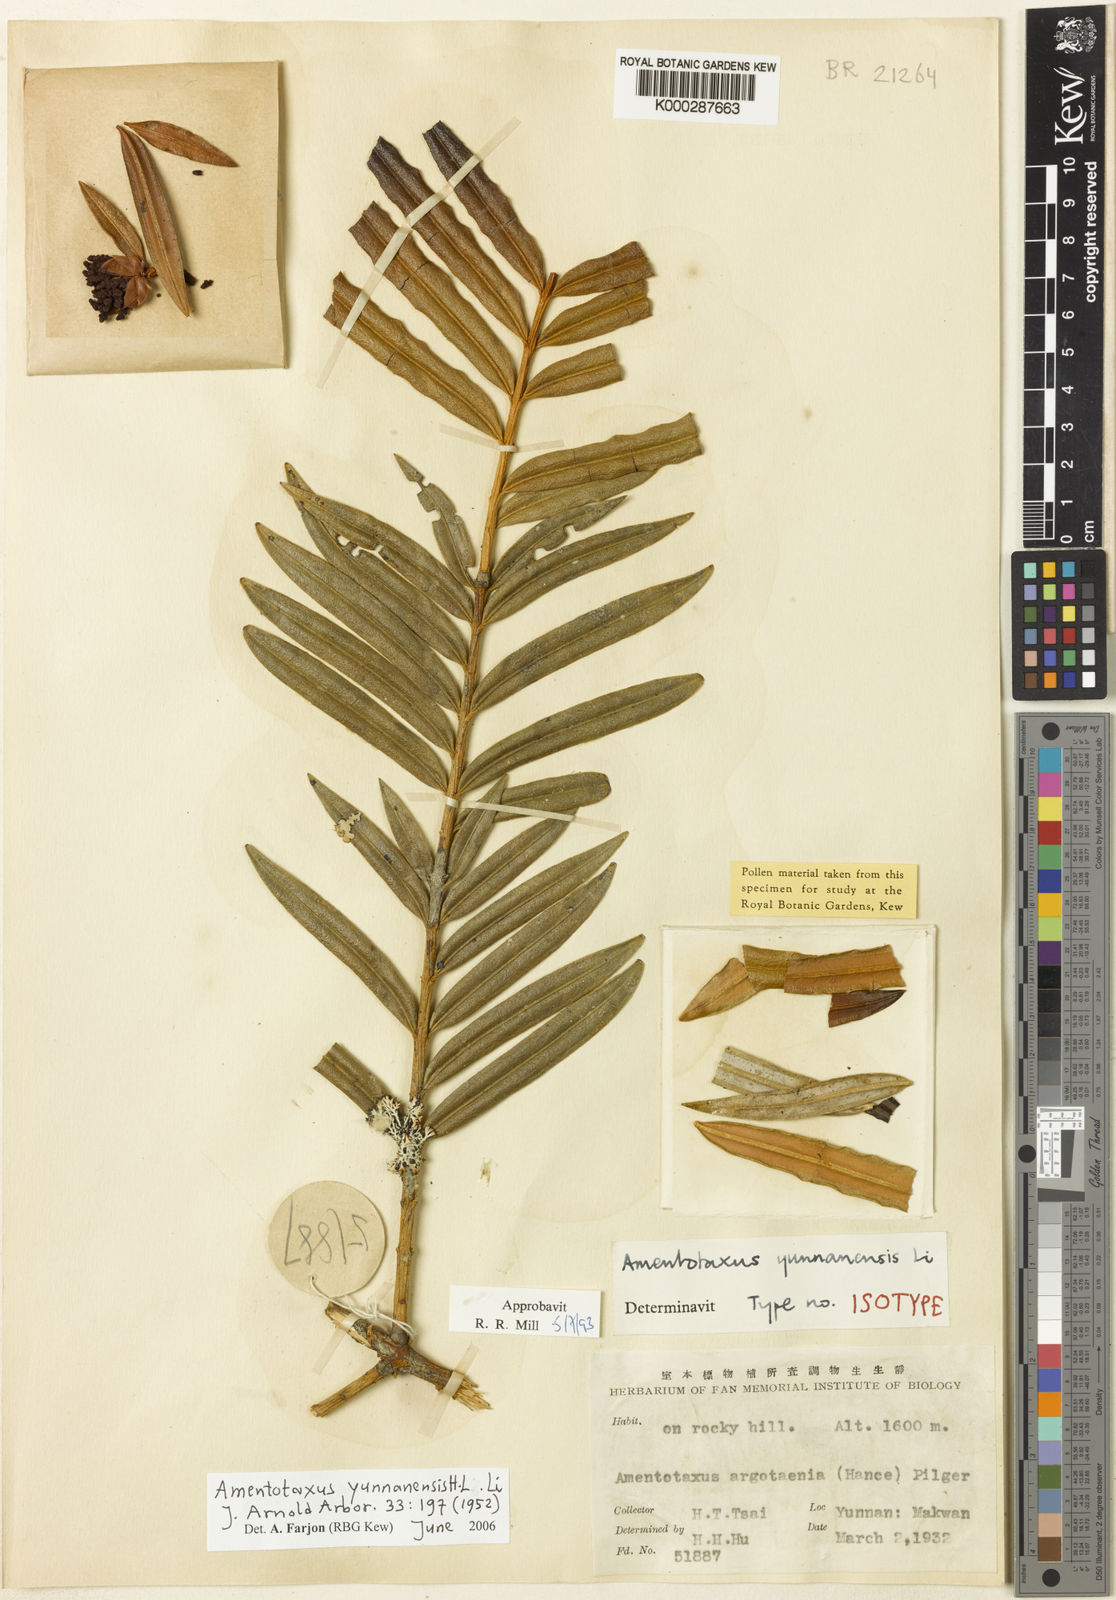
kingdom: Plantae
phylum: Tracheophyta
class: Pinopsida
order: Pinales
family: Taxaceae
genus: Amentotaxus
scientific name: Amentotaxus yunnanensis
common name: Yunnan catkin yew
